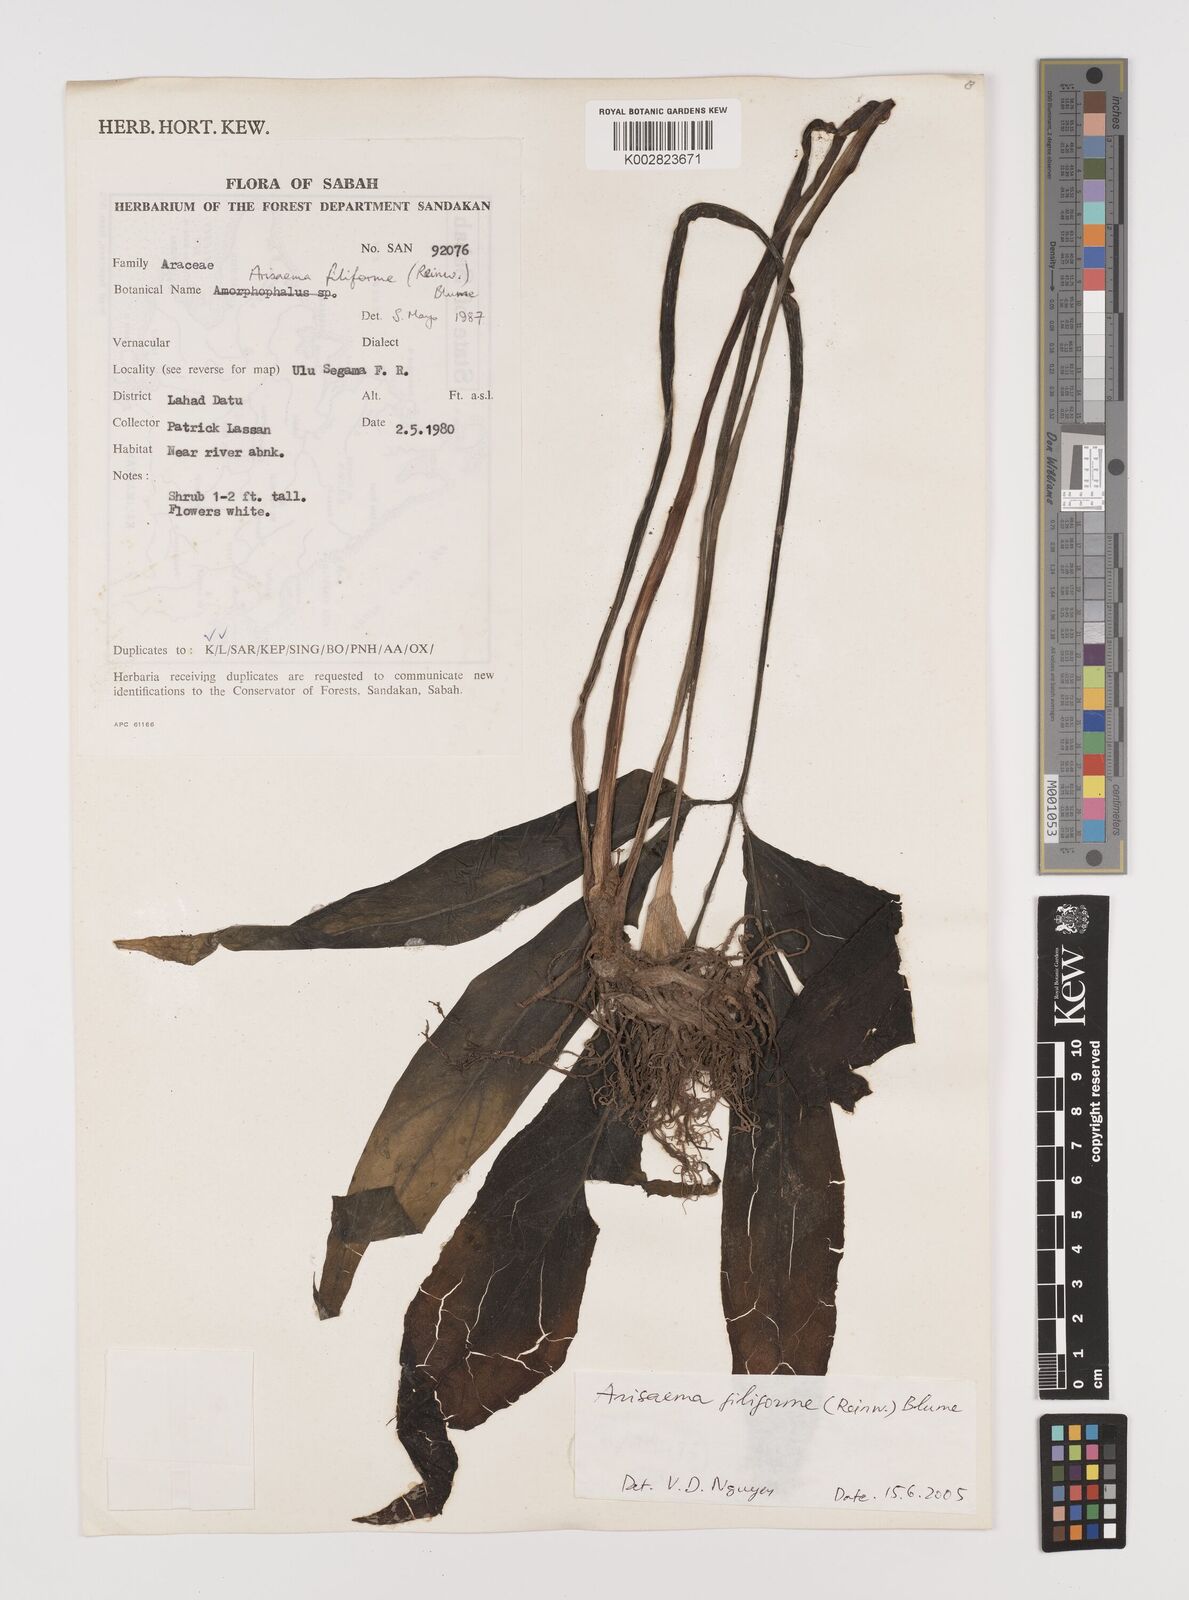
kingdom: Plantae
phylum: Tracheophyta
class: Liliopsida
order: Alismatales
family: Araceae
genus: Arisaema
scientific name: Arisaema filiforme
